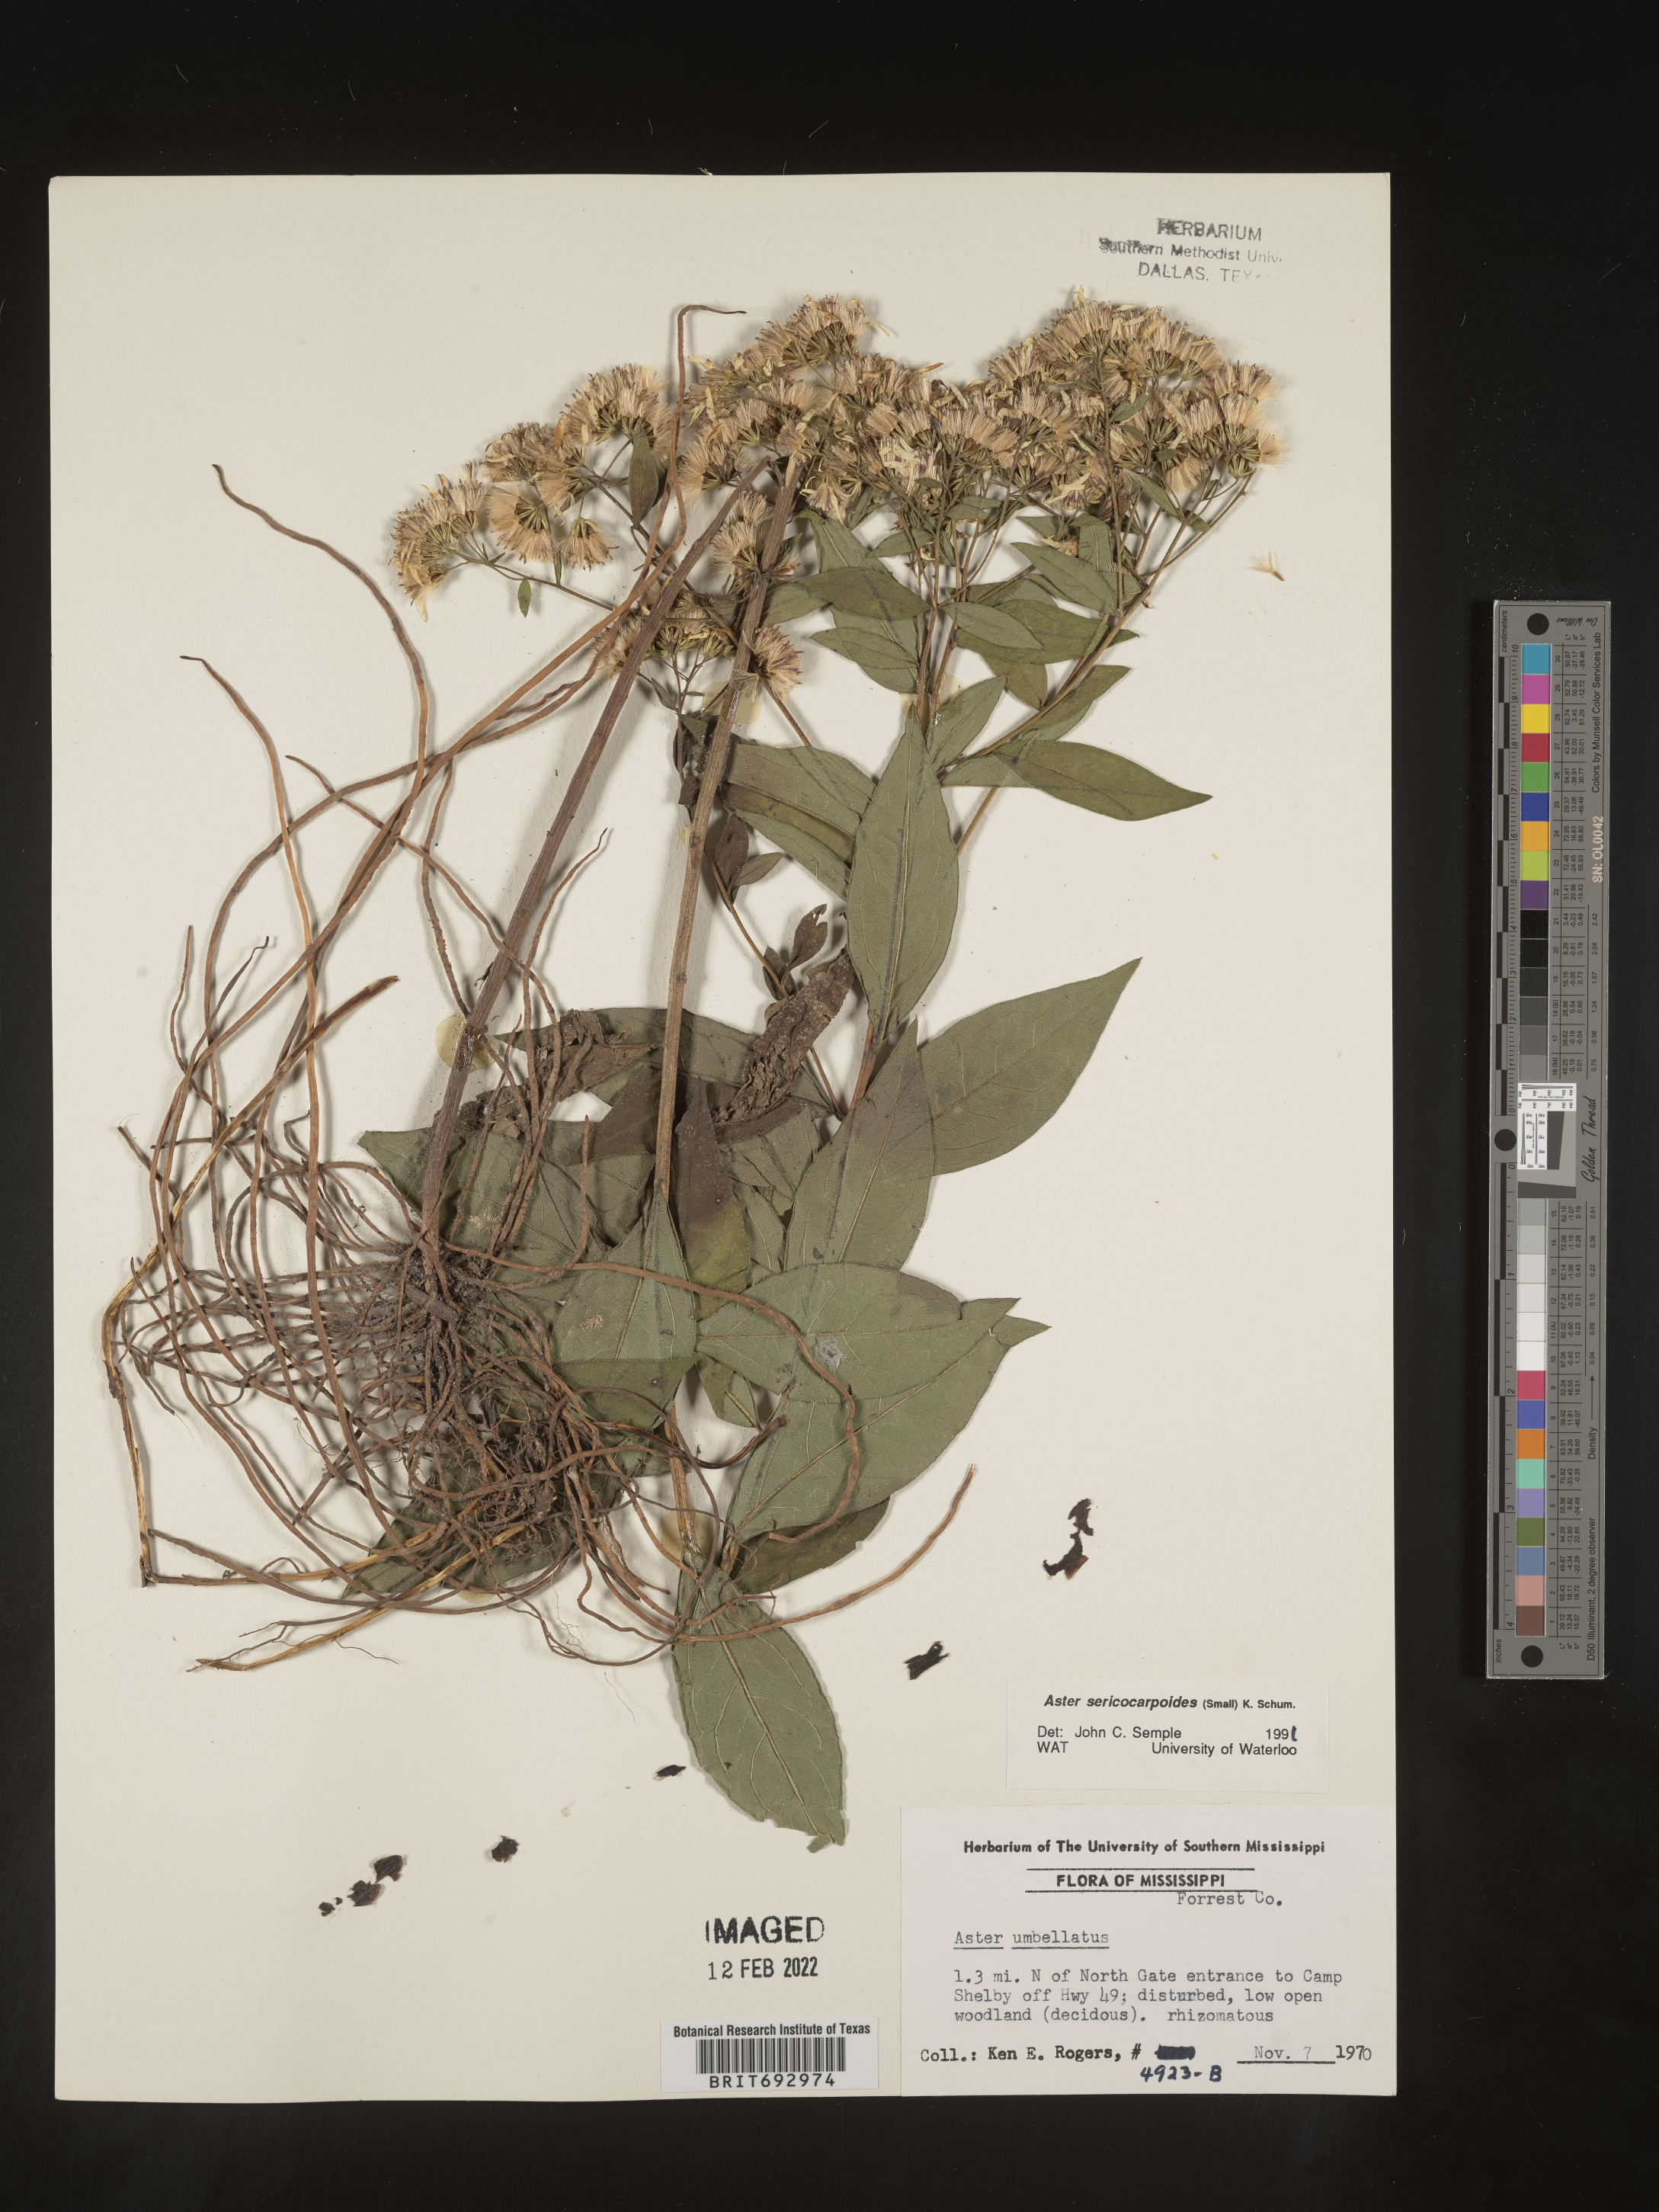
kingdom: Plantae
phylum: Tracheophyta
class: Magnoliopsida
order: Asterales
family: Asteraceae
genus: Doellingeria
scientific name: Doellingeria sericocarpoides
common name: Southern tall flat-top aster
